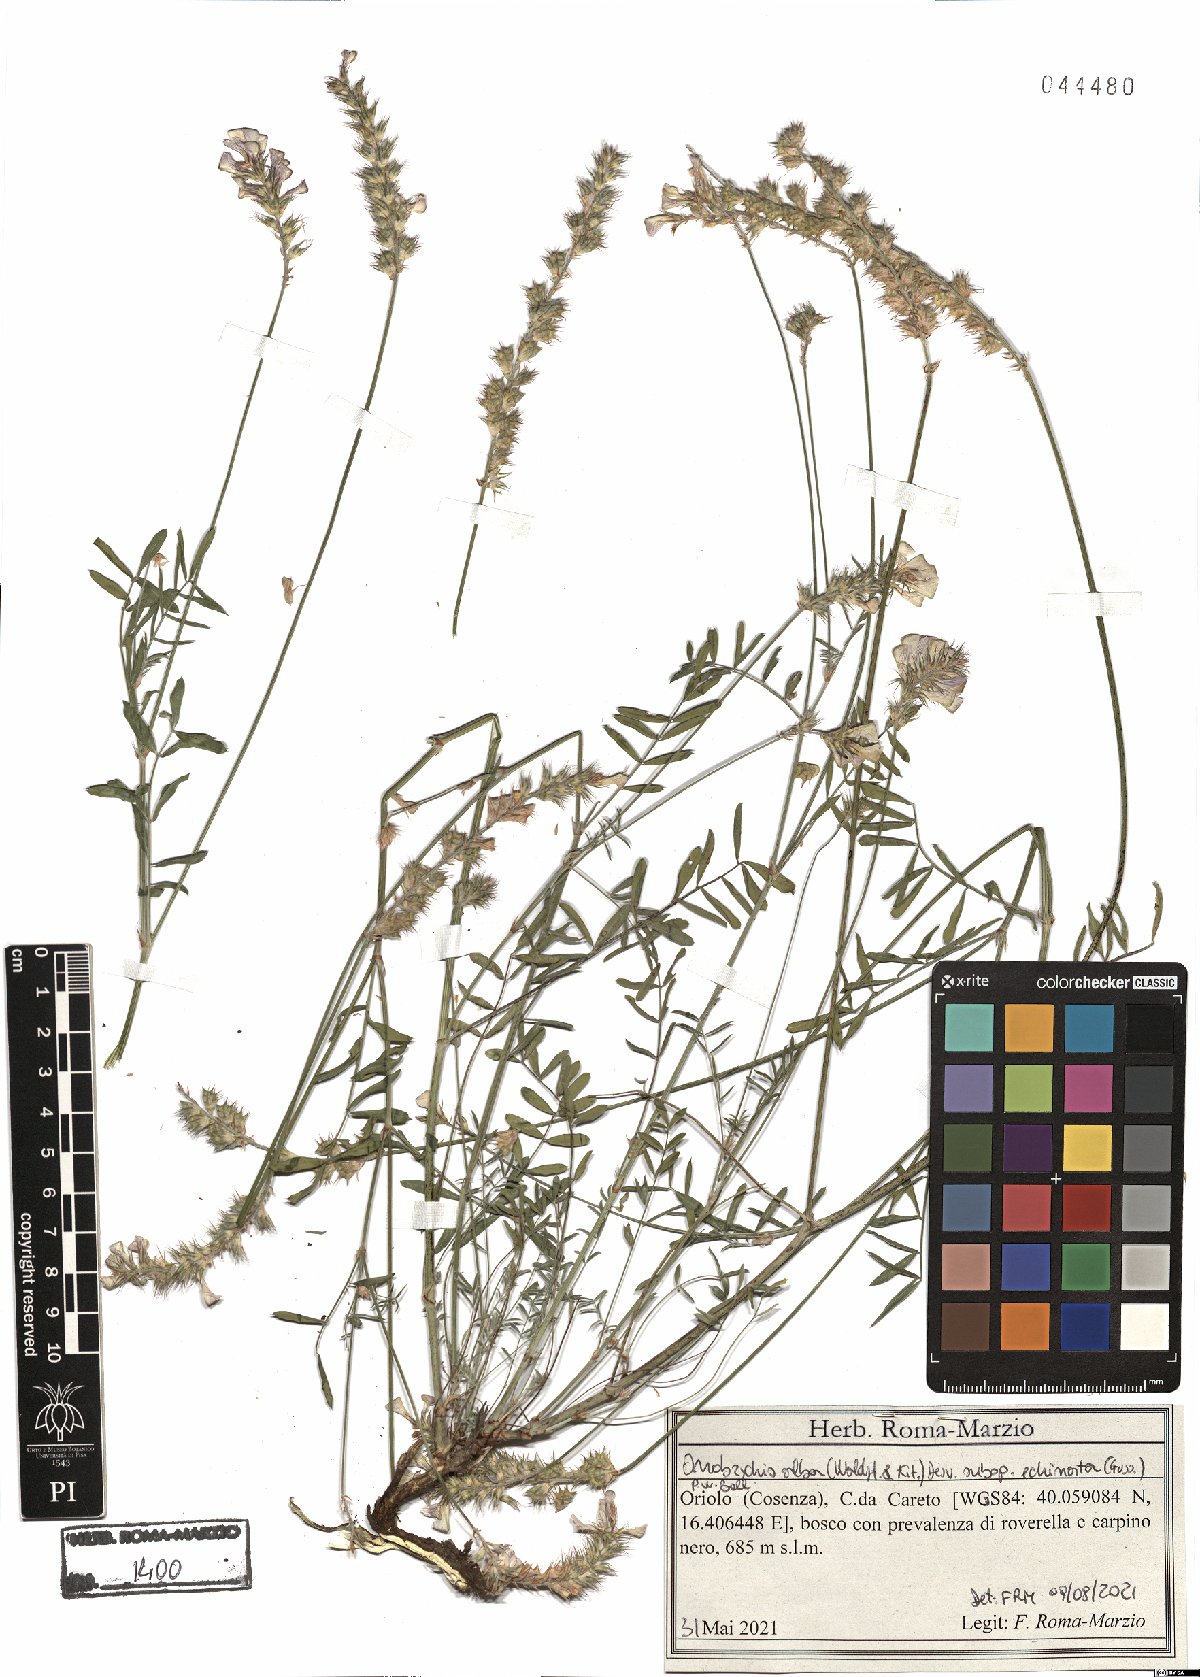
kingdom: Plantae
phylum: Tracheophyta
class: Magnoliopsida
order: Fabales
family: Fabaceae
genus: Onobrychis
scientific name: Onobrychis alba
